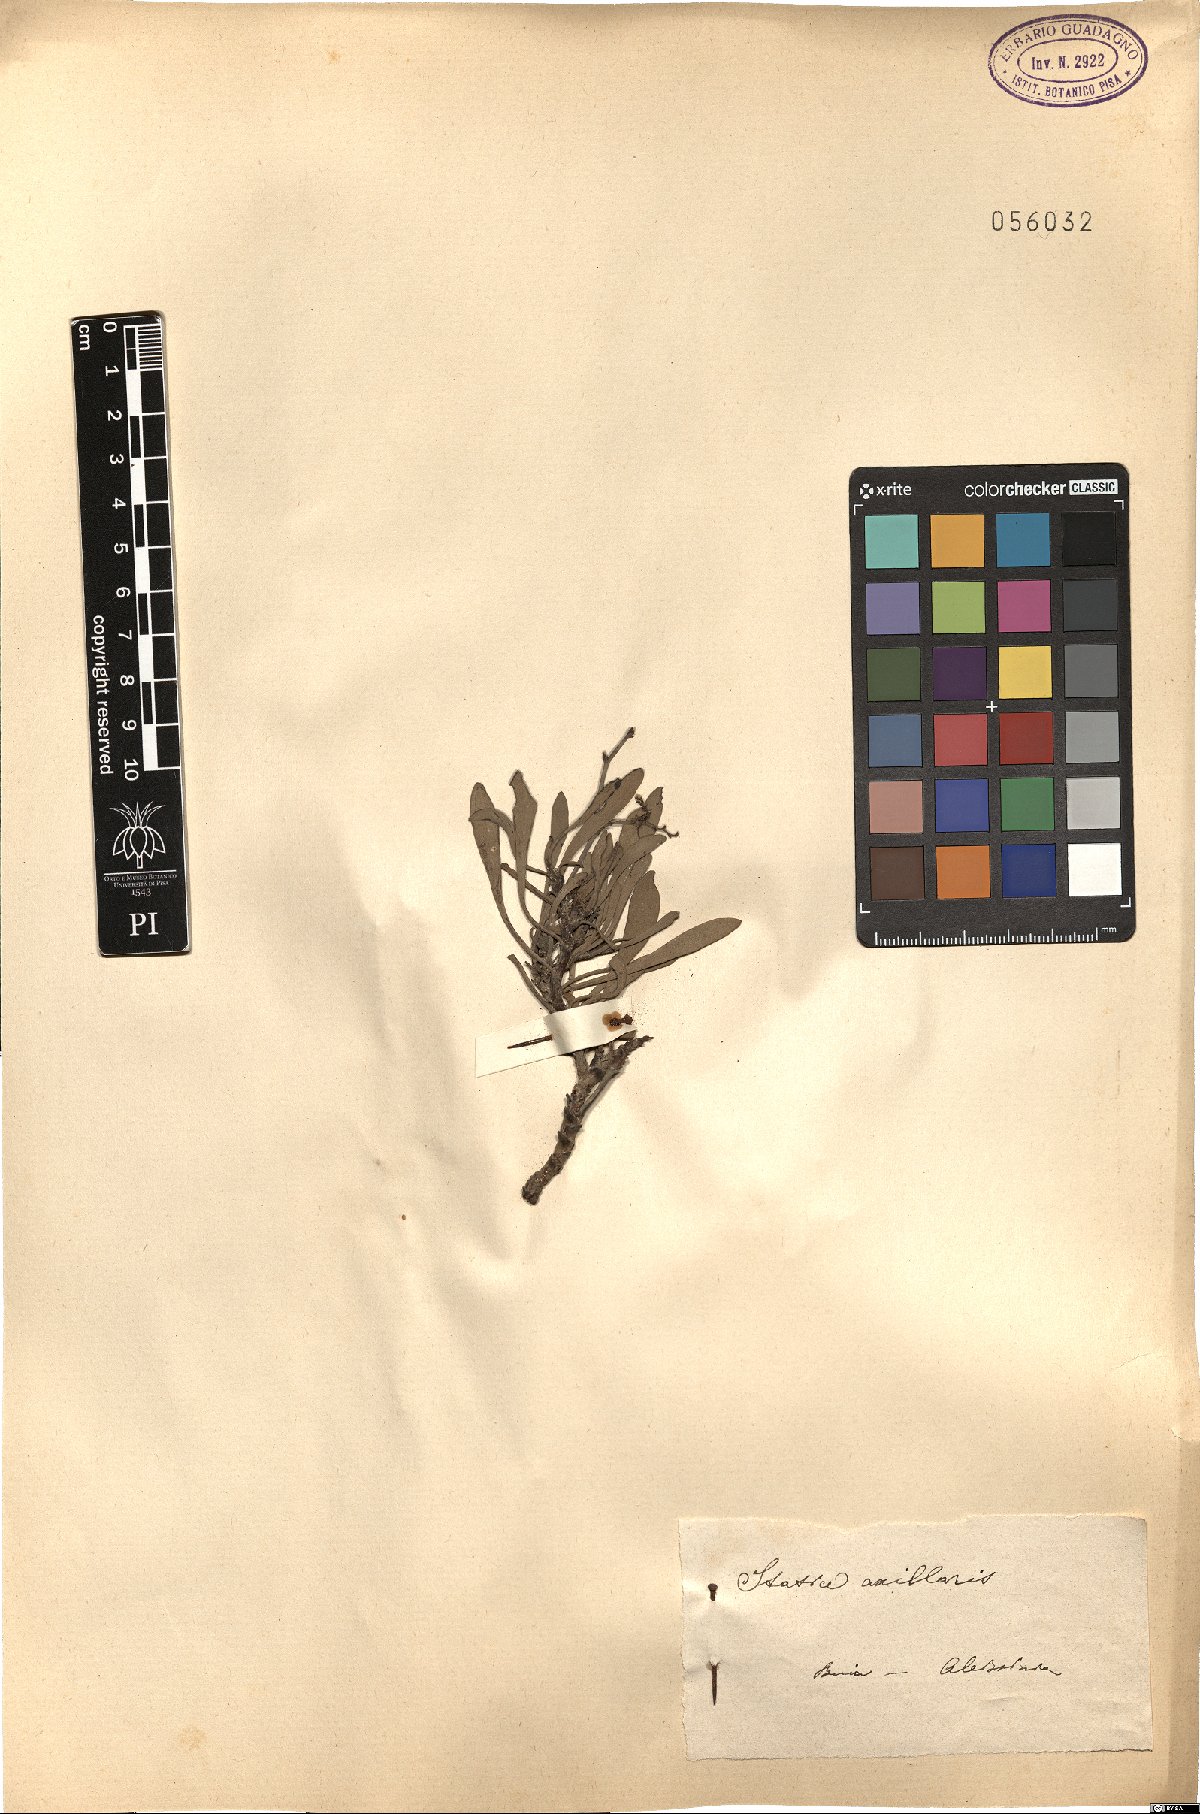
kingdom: Plantae
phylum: Tracheophyta
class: Magnoliopsida
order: Caryophyllales
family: Plumbaginaceae
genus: Limonium
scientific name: Limonium axillare
